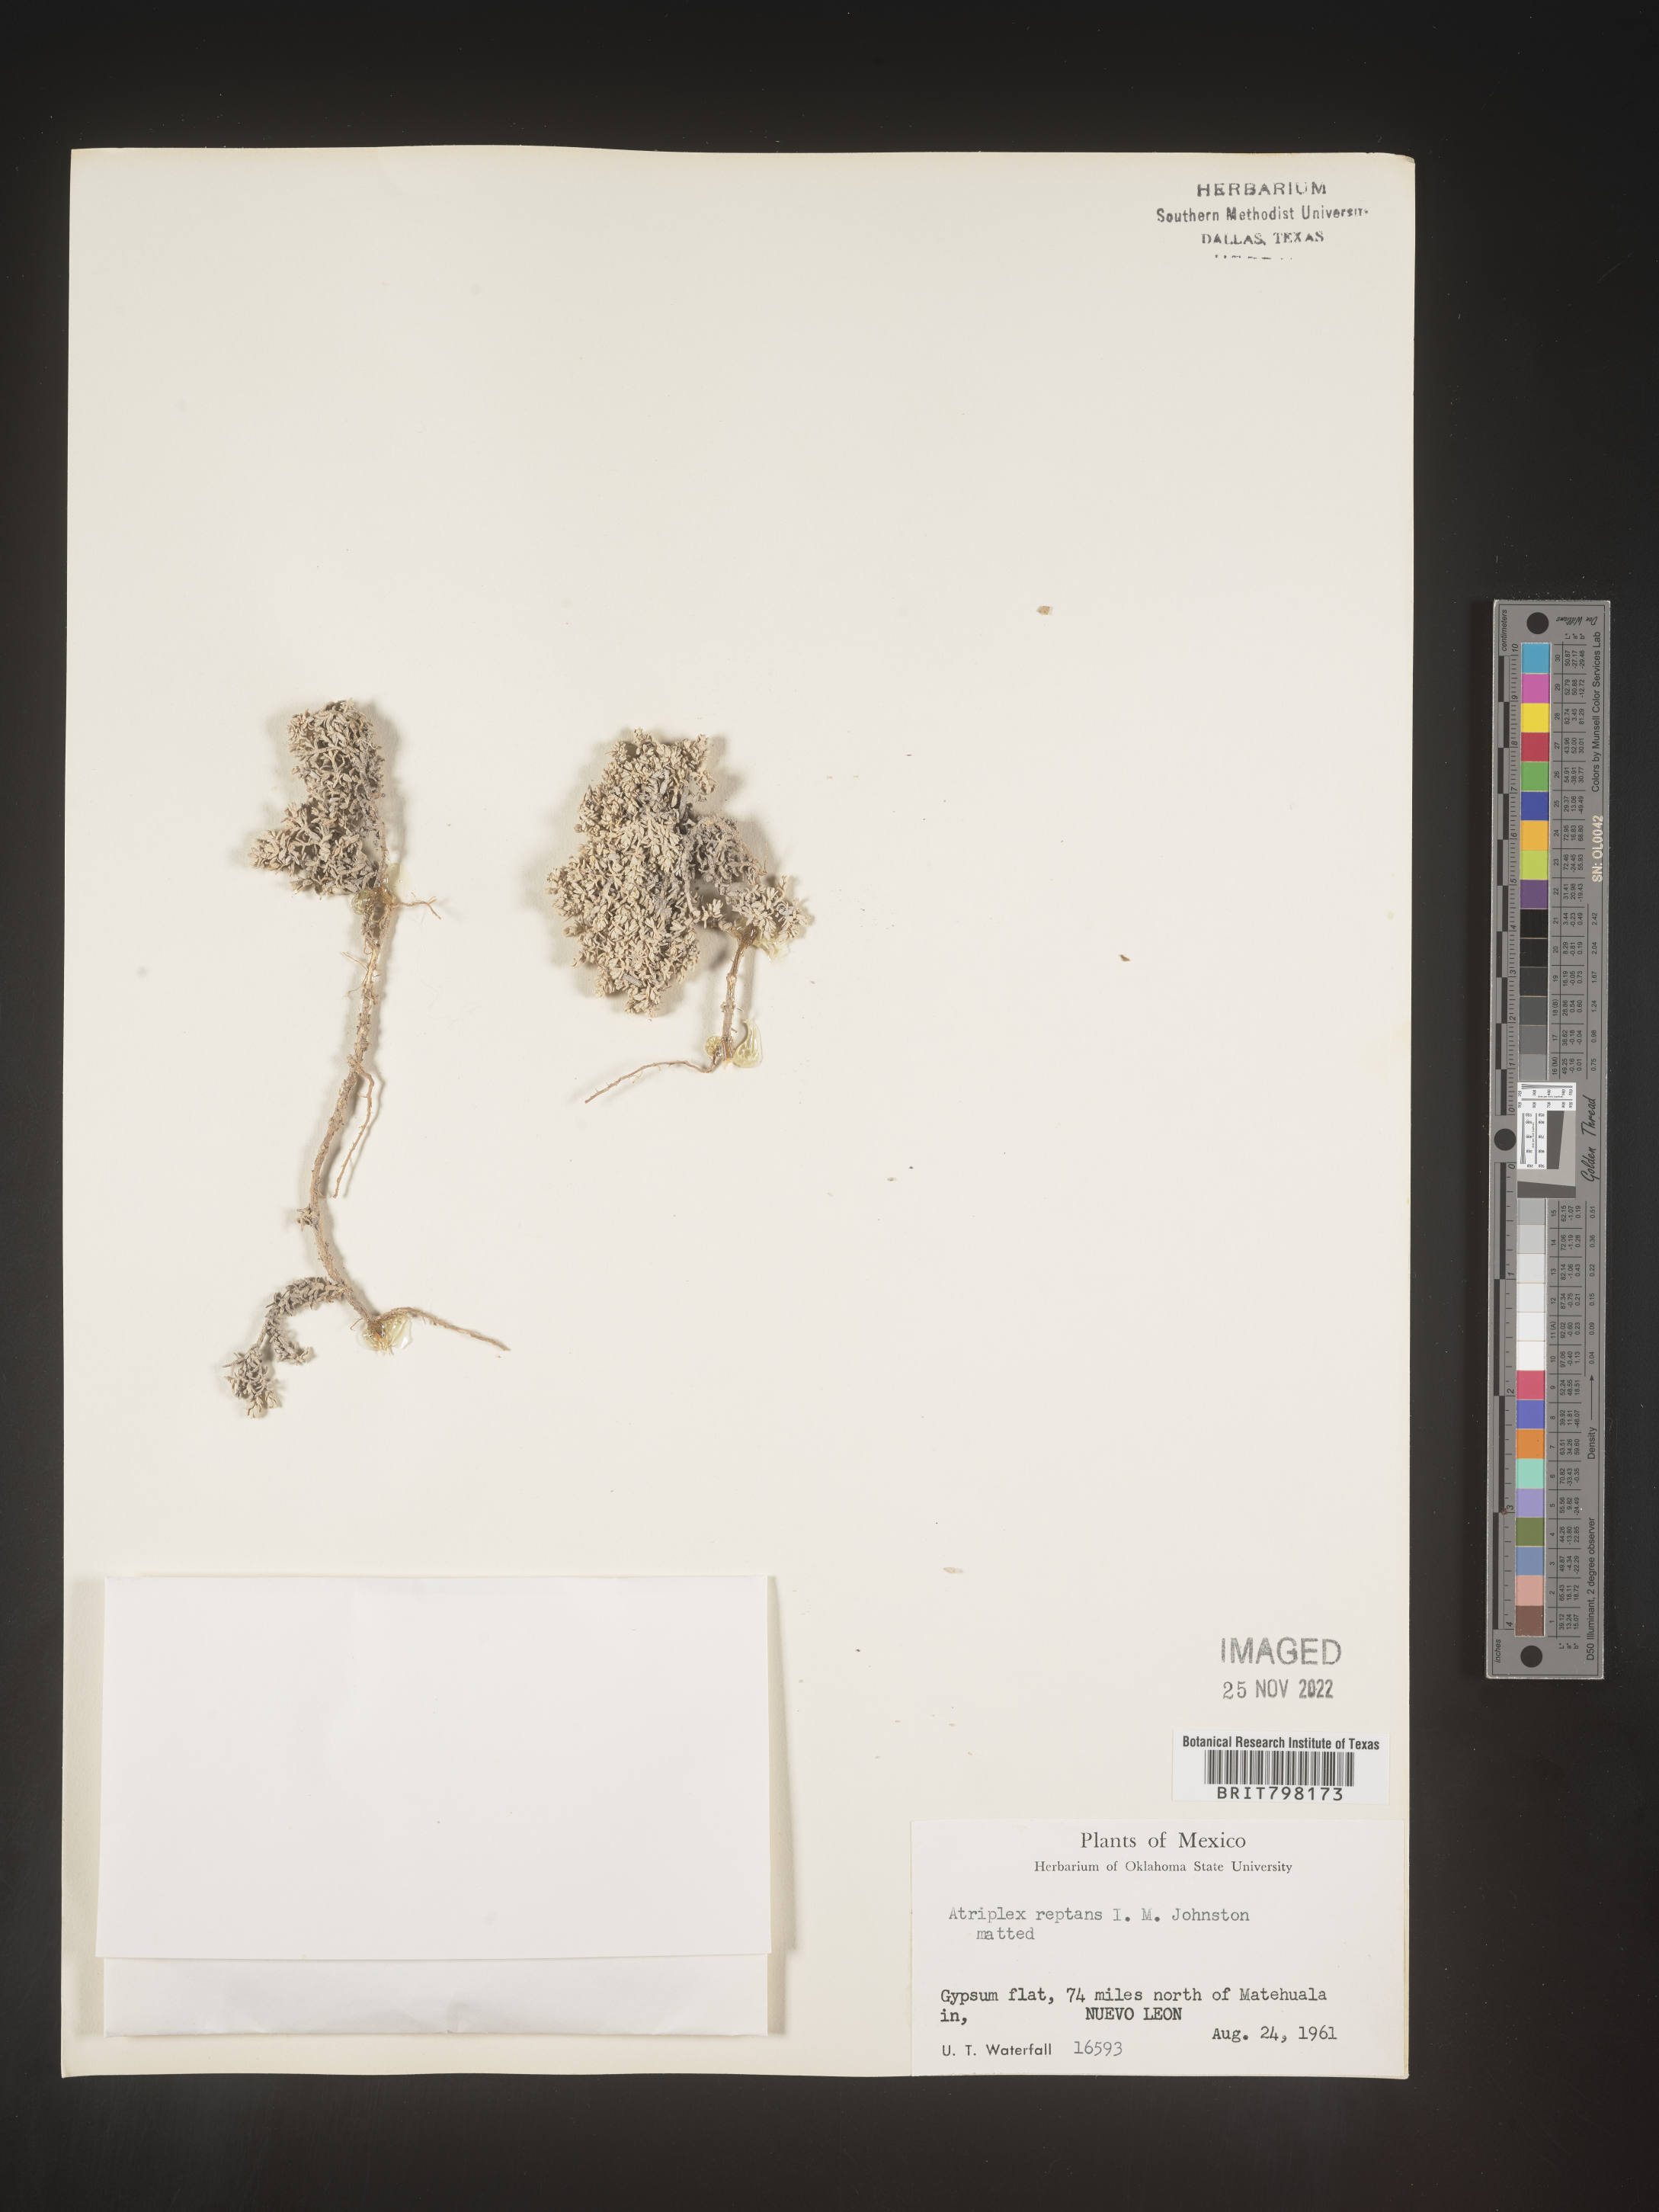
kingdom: Plantae
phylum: Tracheophyta
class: Magnoliopsida
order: Caryophyllales
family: Amaranthaceae
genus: Atriplex
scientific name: Atriplex
